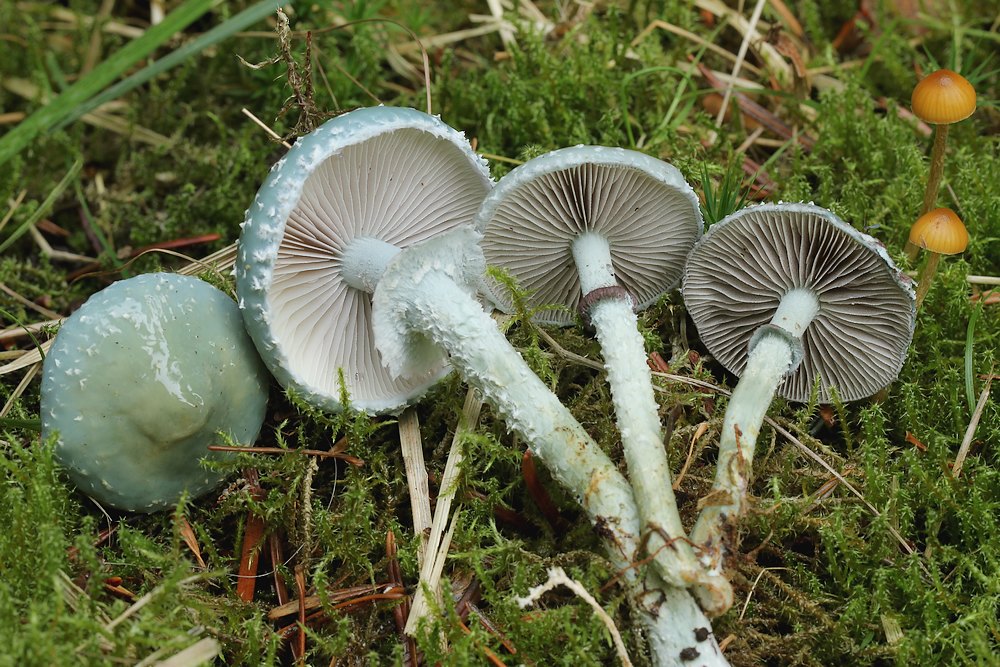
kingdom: Fungi
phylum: Basidiomycota
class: Agaricomycetes
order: Agaricales
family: Strophariaceae
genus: Stropharia
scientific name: Stropharia aeruginosa
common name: spanskgrøn bredblad
